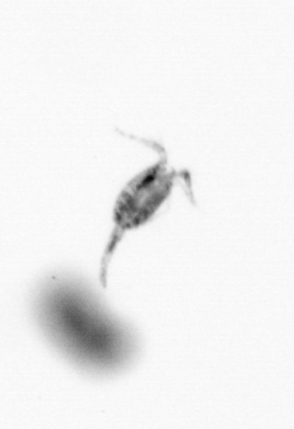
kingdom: Animalia
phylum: Arthropoda
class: Copepoda
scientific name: Copepoda
